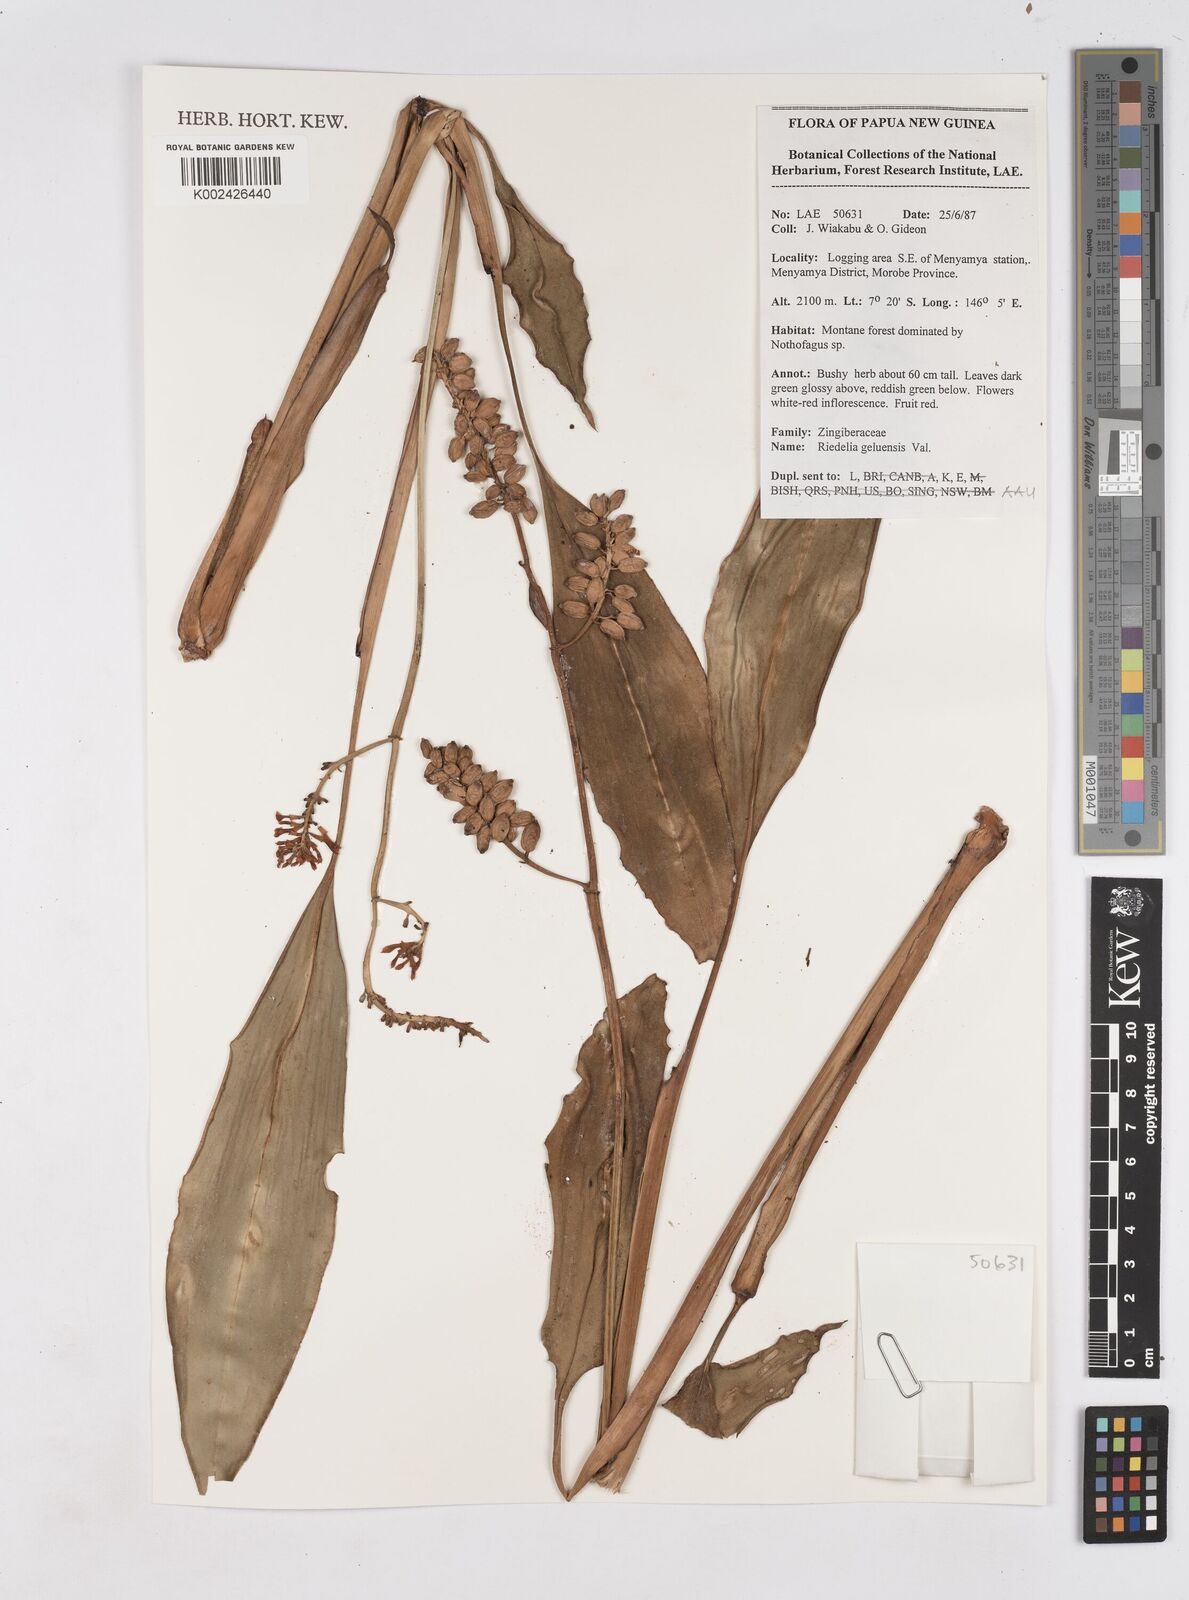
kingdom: Plantae
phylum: Tracheophyta
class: Liliopsida
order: Zingiberales
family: Zingiberaceae
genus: Riedelia
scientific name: Riedelia geluensis
